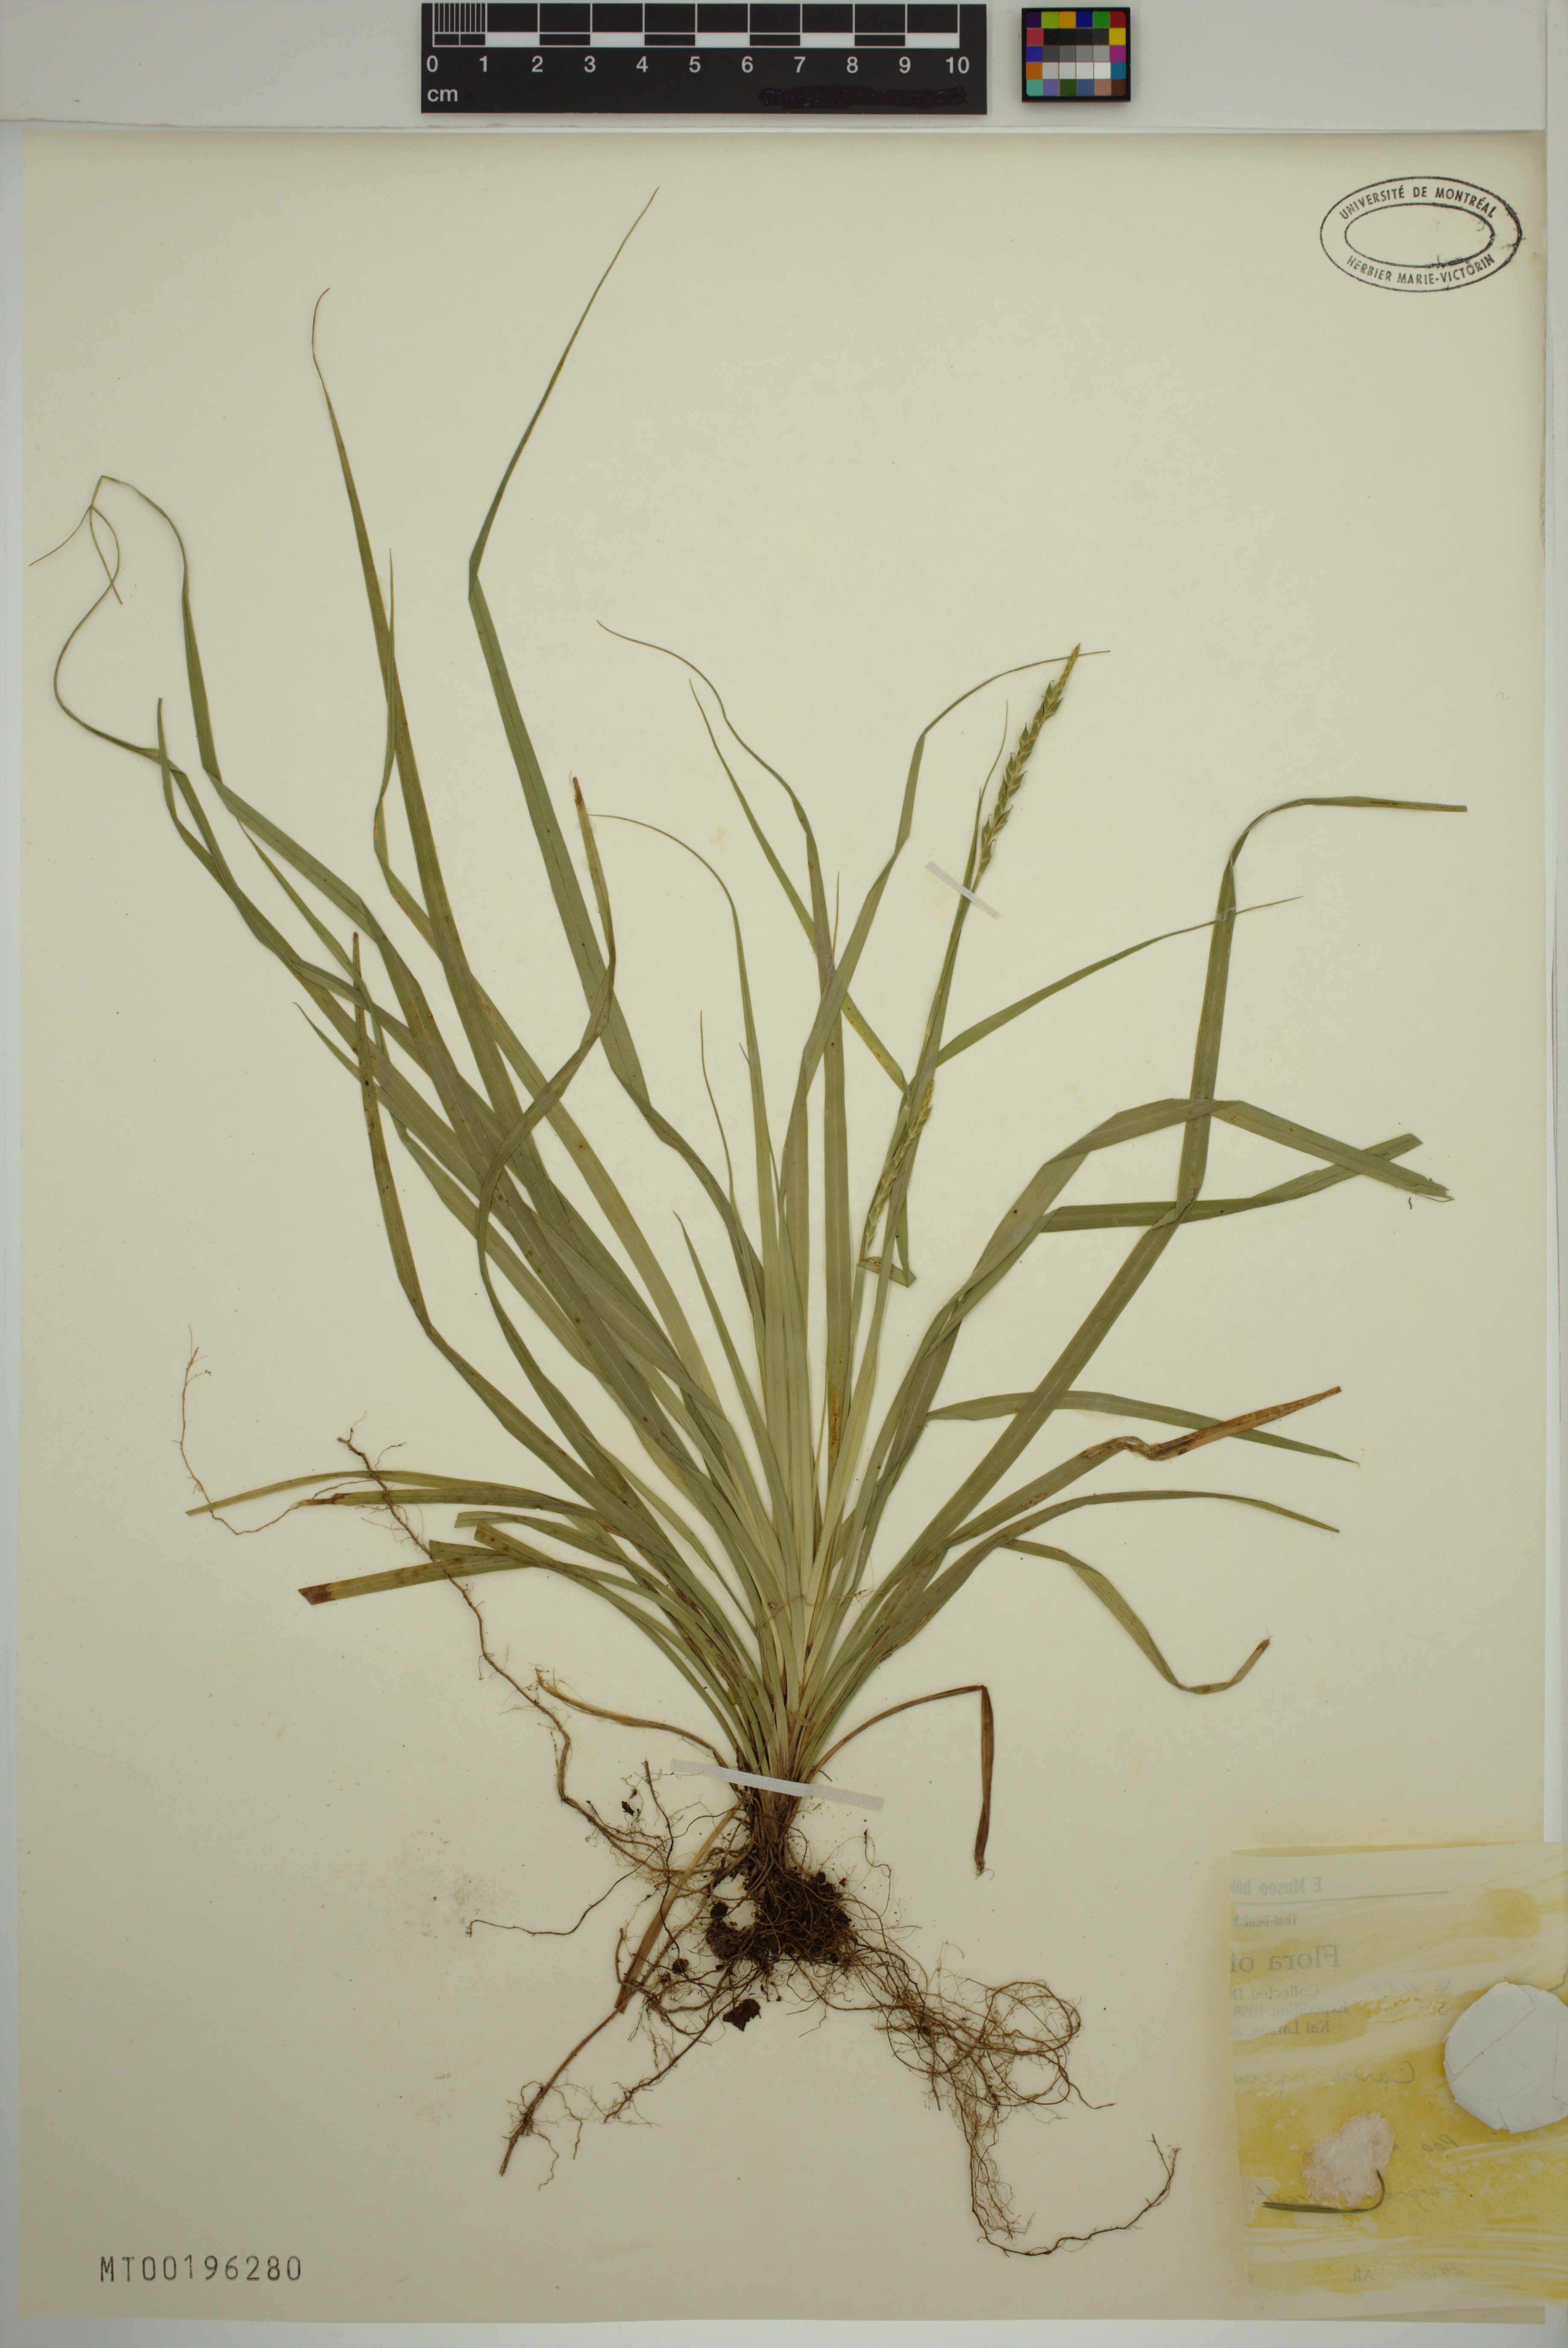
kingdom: Plantae
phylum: Tracheophyta
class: Liliopsida
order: Poales
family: Cyperaceae
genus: Carex
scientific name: Carex speciosa
